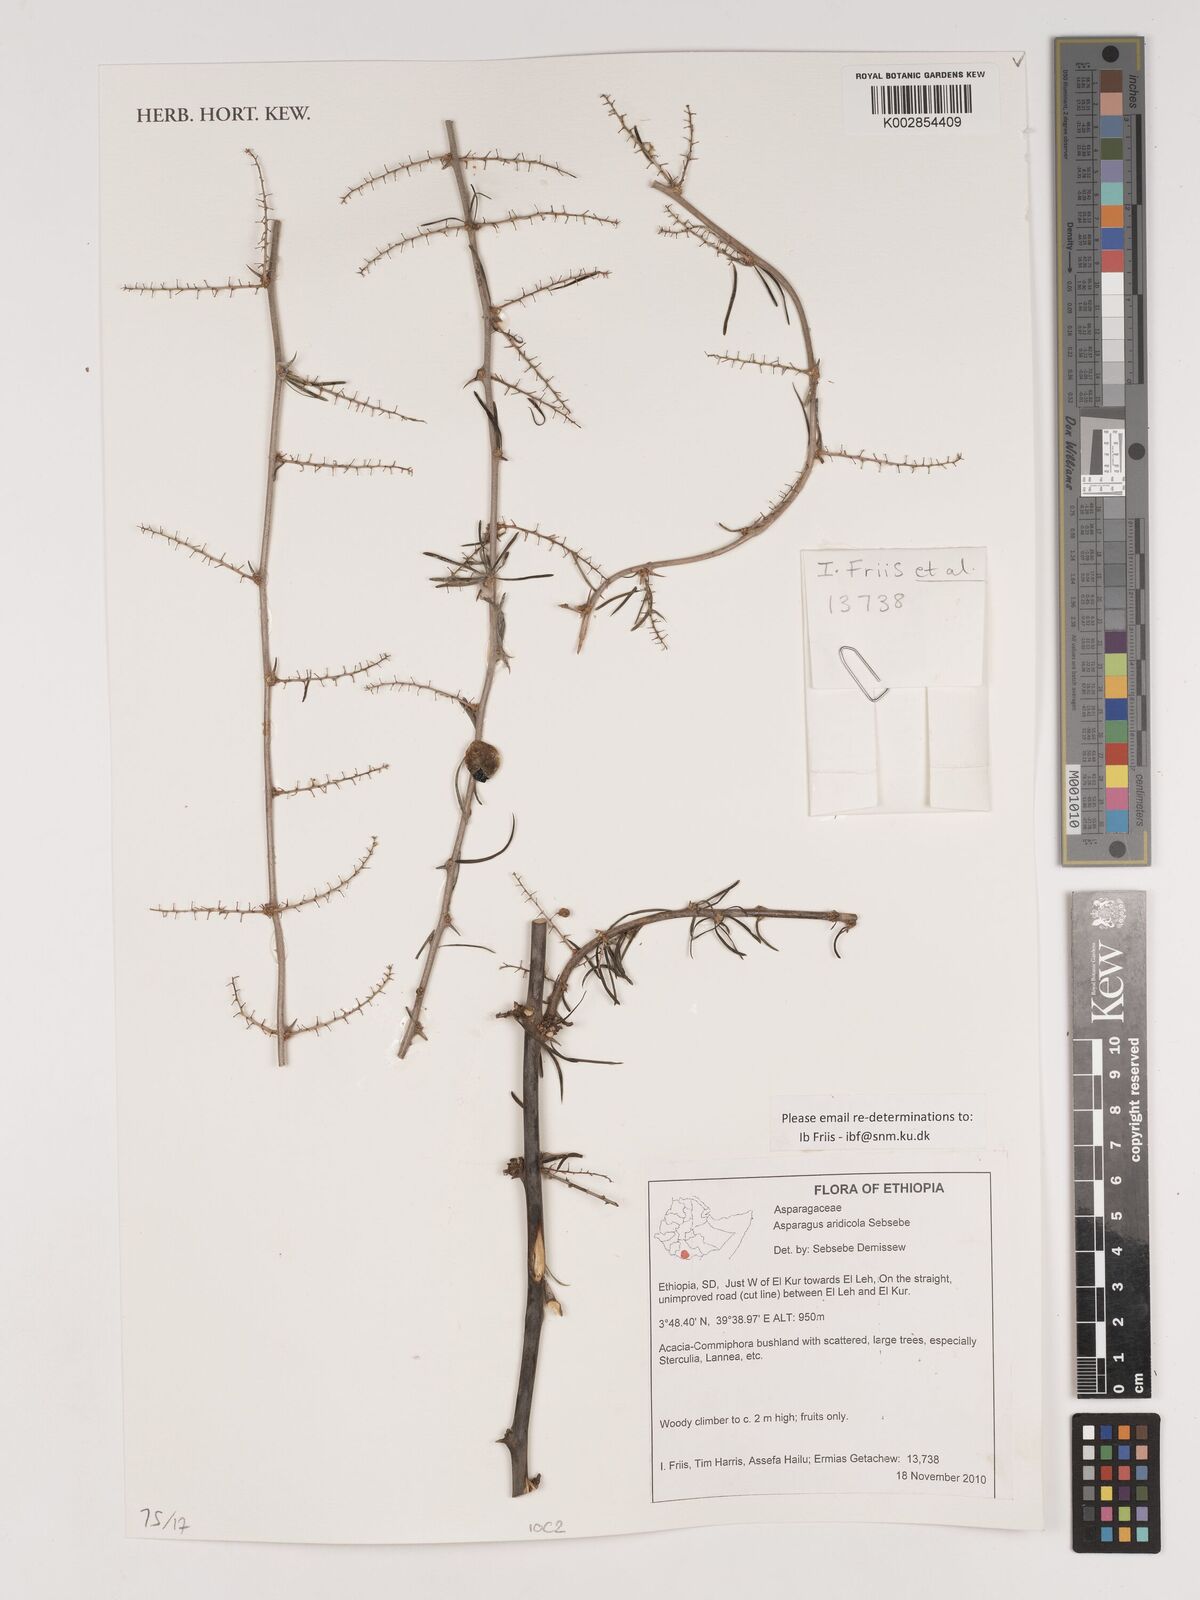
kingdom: Plantae
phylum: Tracheophyta
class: Liliopsida
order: Asparagales
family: Asparagaceae
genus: Asparagus
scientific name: Asparagus aridicola
